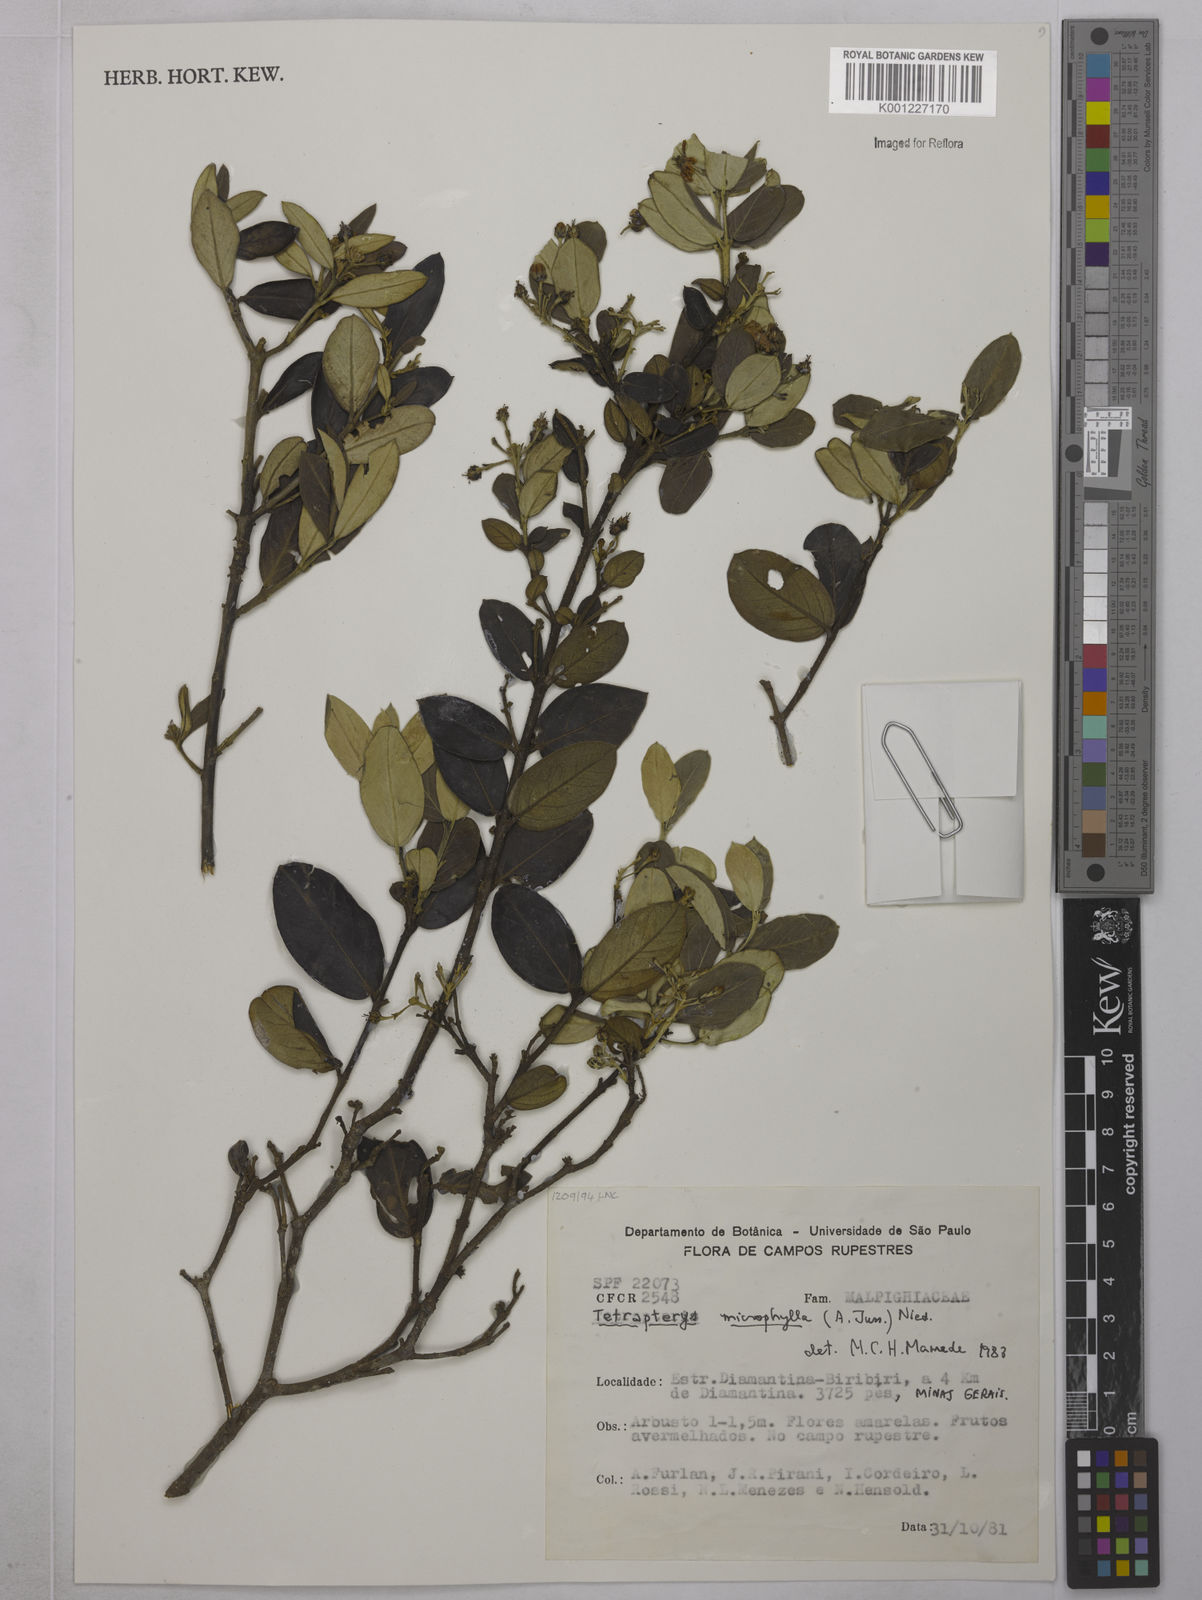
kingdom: Plantae
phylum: Tracheophyta
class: Magnoliopsida
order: Malpighiales
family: Malpighiaceae
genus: Glicophyllum
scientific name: Glicophyllum microphyllum
